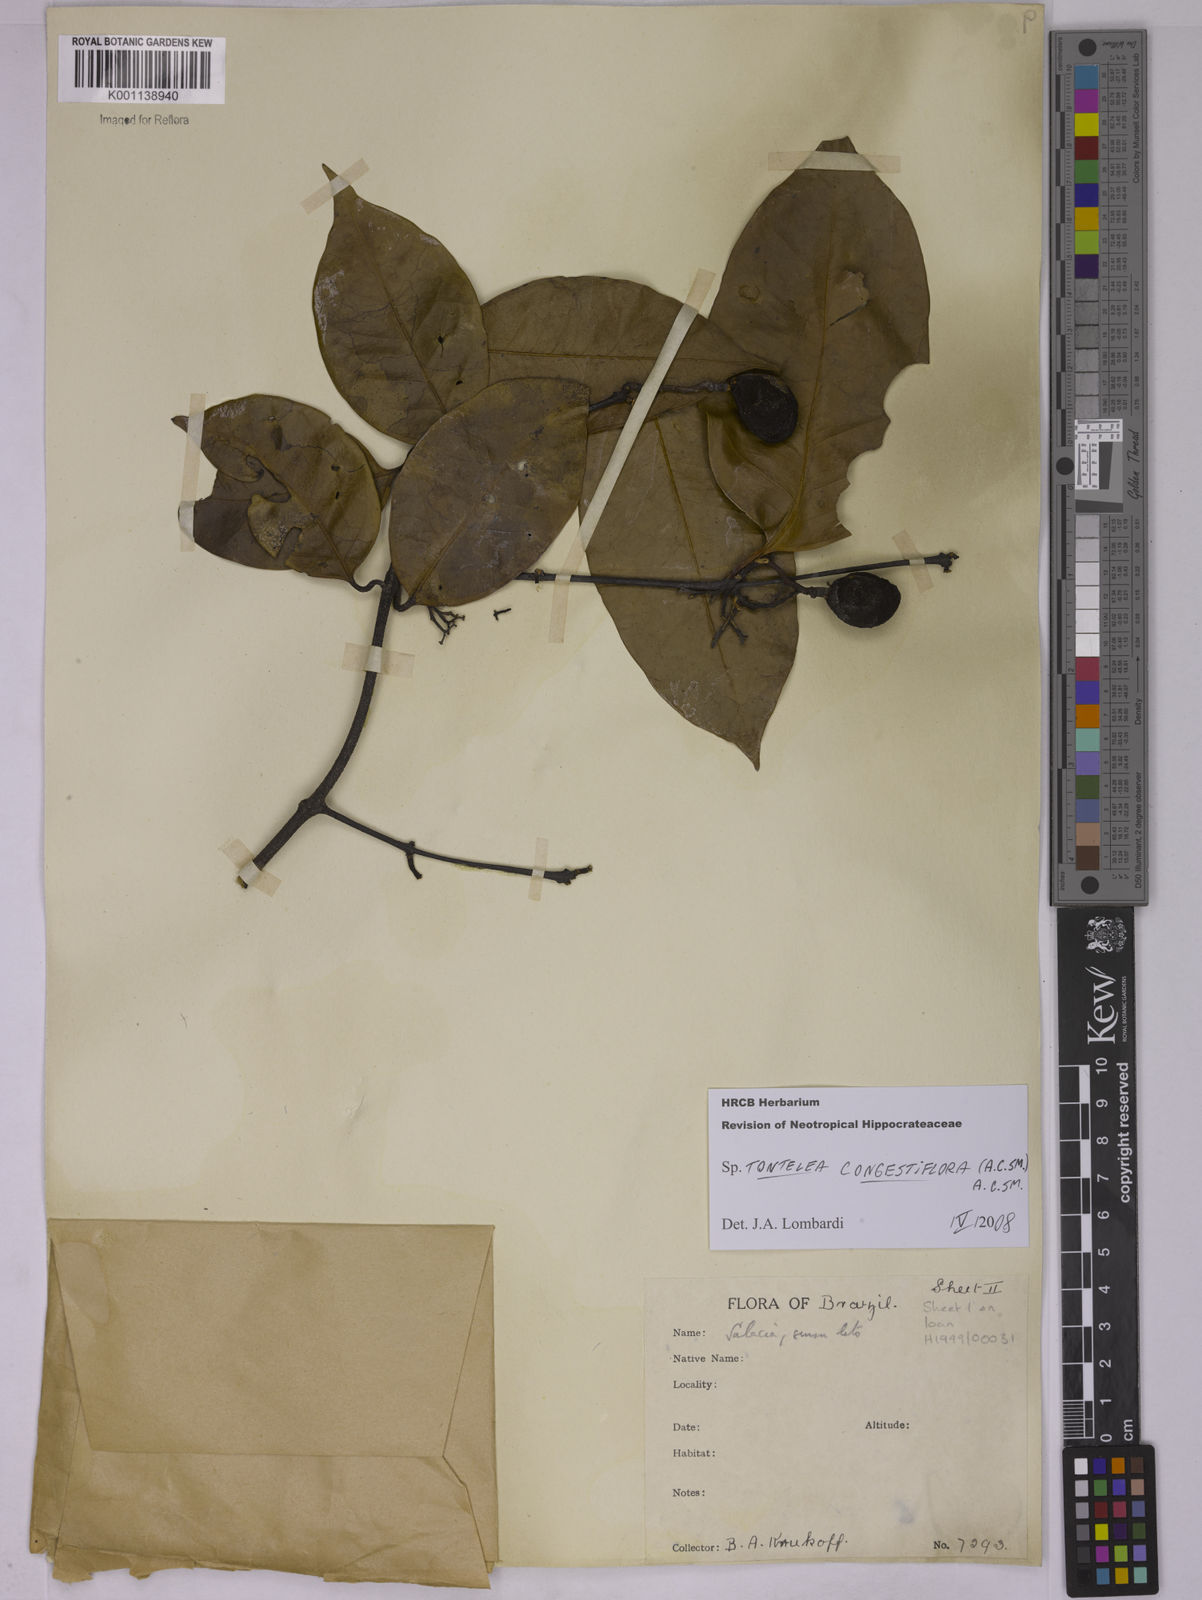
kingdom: Plantae
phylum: Tracheophyta
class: Magnoliopsida
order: Celastrales
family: Celastraceae
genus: Tontelea
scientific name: Tontelea congestiflora
